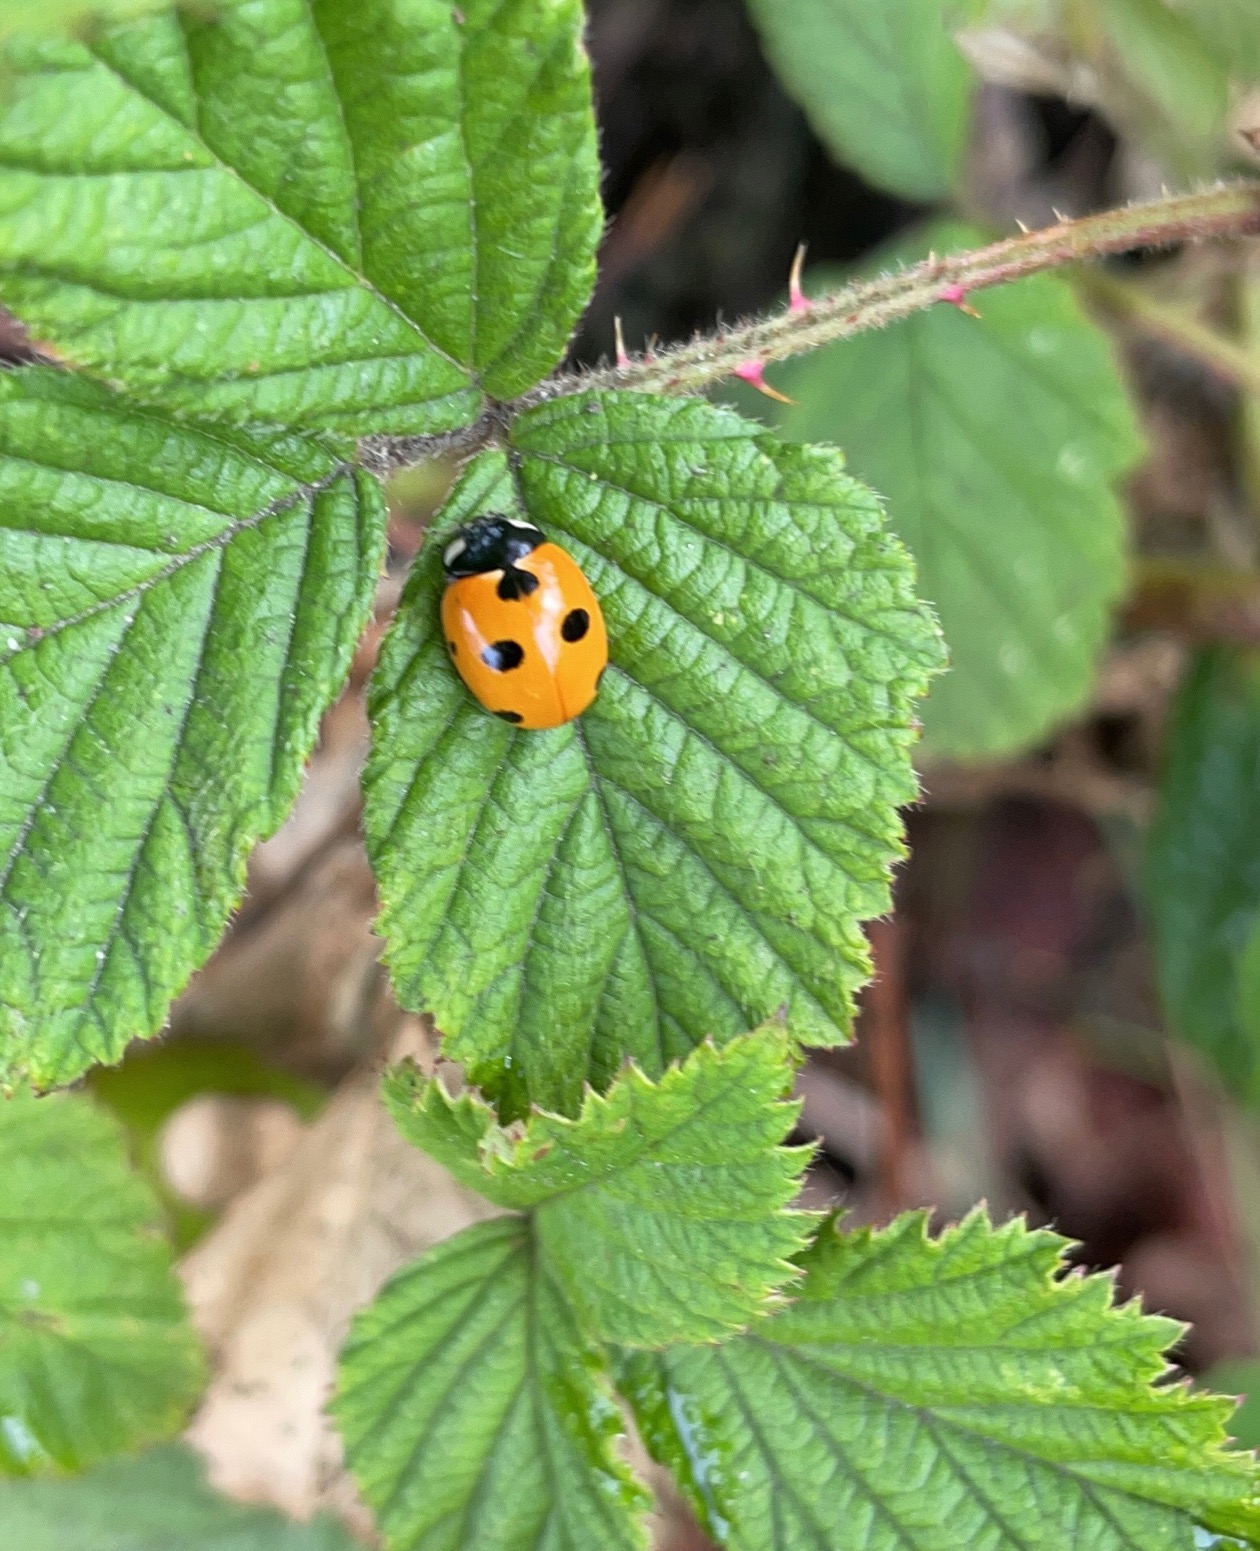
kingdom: Animalia
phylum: Arthropoda
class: Insecta
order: Coleoptera
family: Coccinellidae
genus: Coccinella
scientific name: Coccinella magnifica
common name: Myremariehøne
